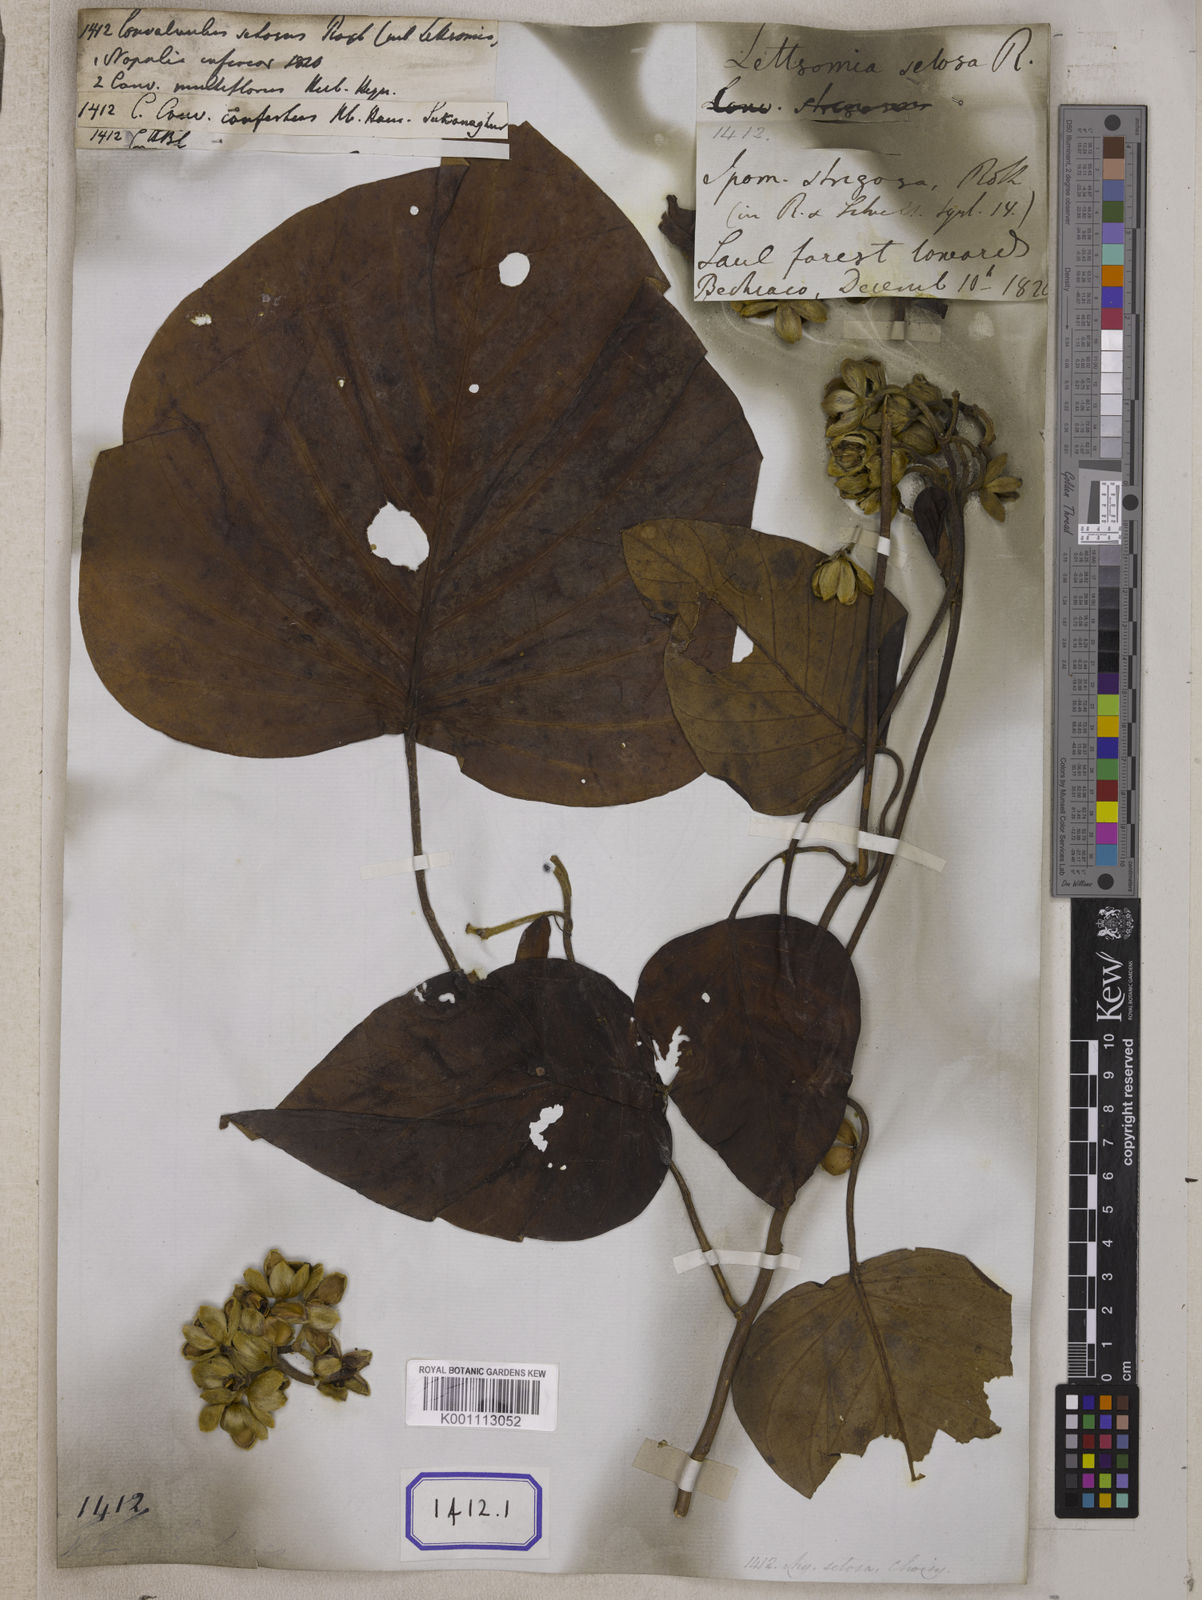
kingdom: Plantae
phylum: Tracheophyta
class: Magnoliopsida
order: Solanales
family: Convolvulaceae
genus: Convolvulus
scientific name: Convolvulus
